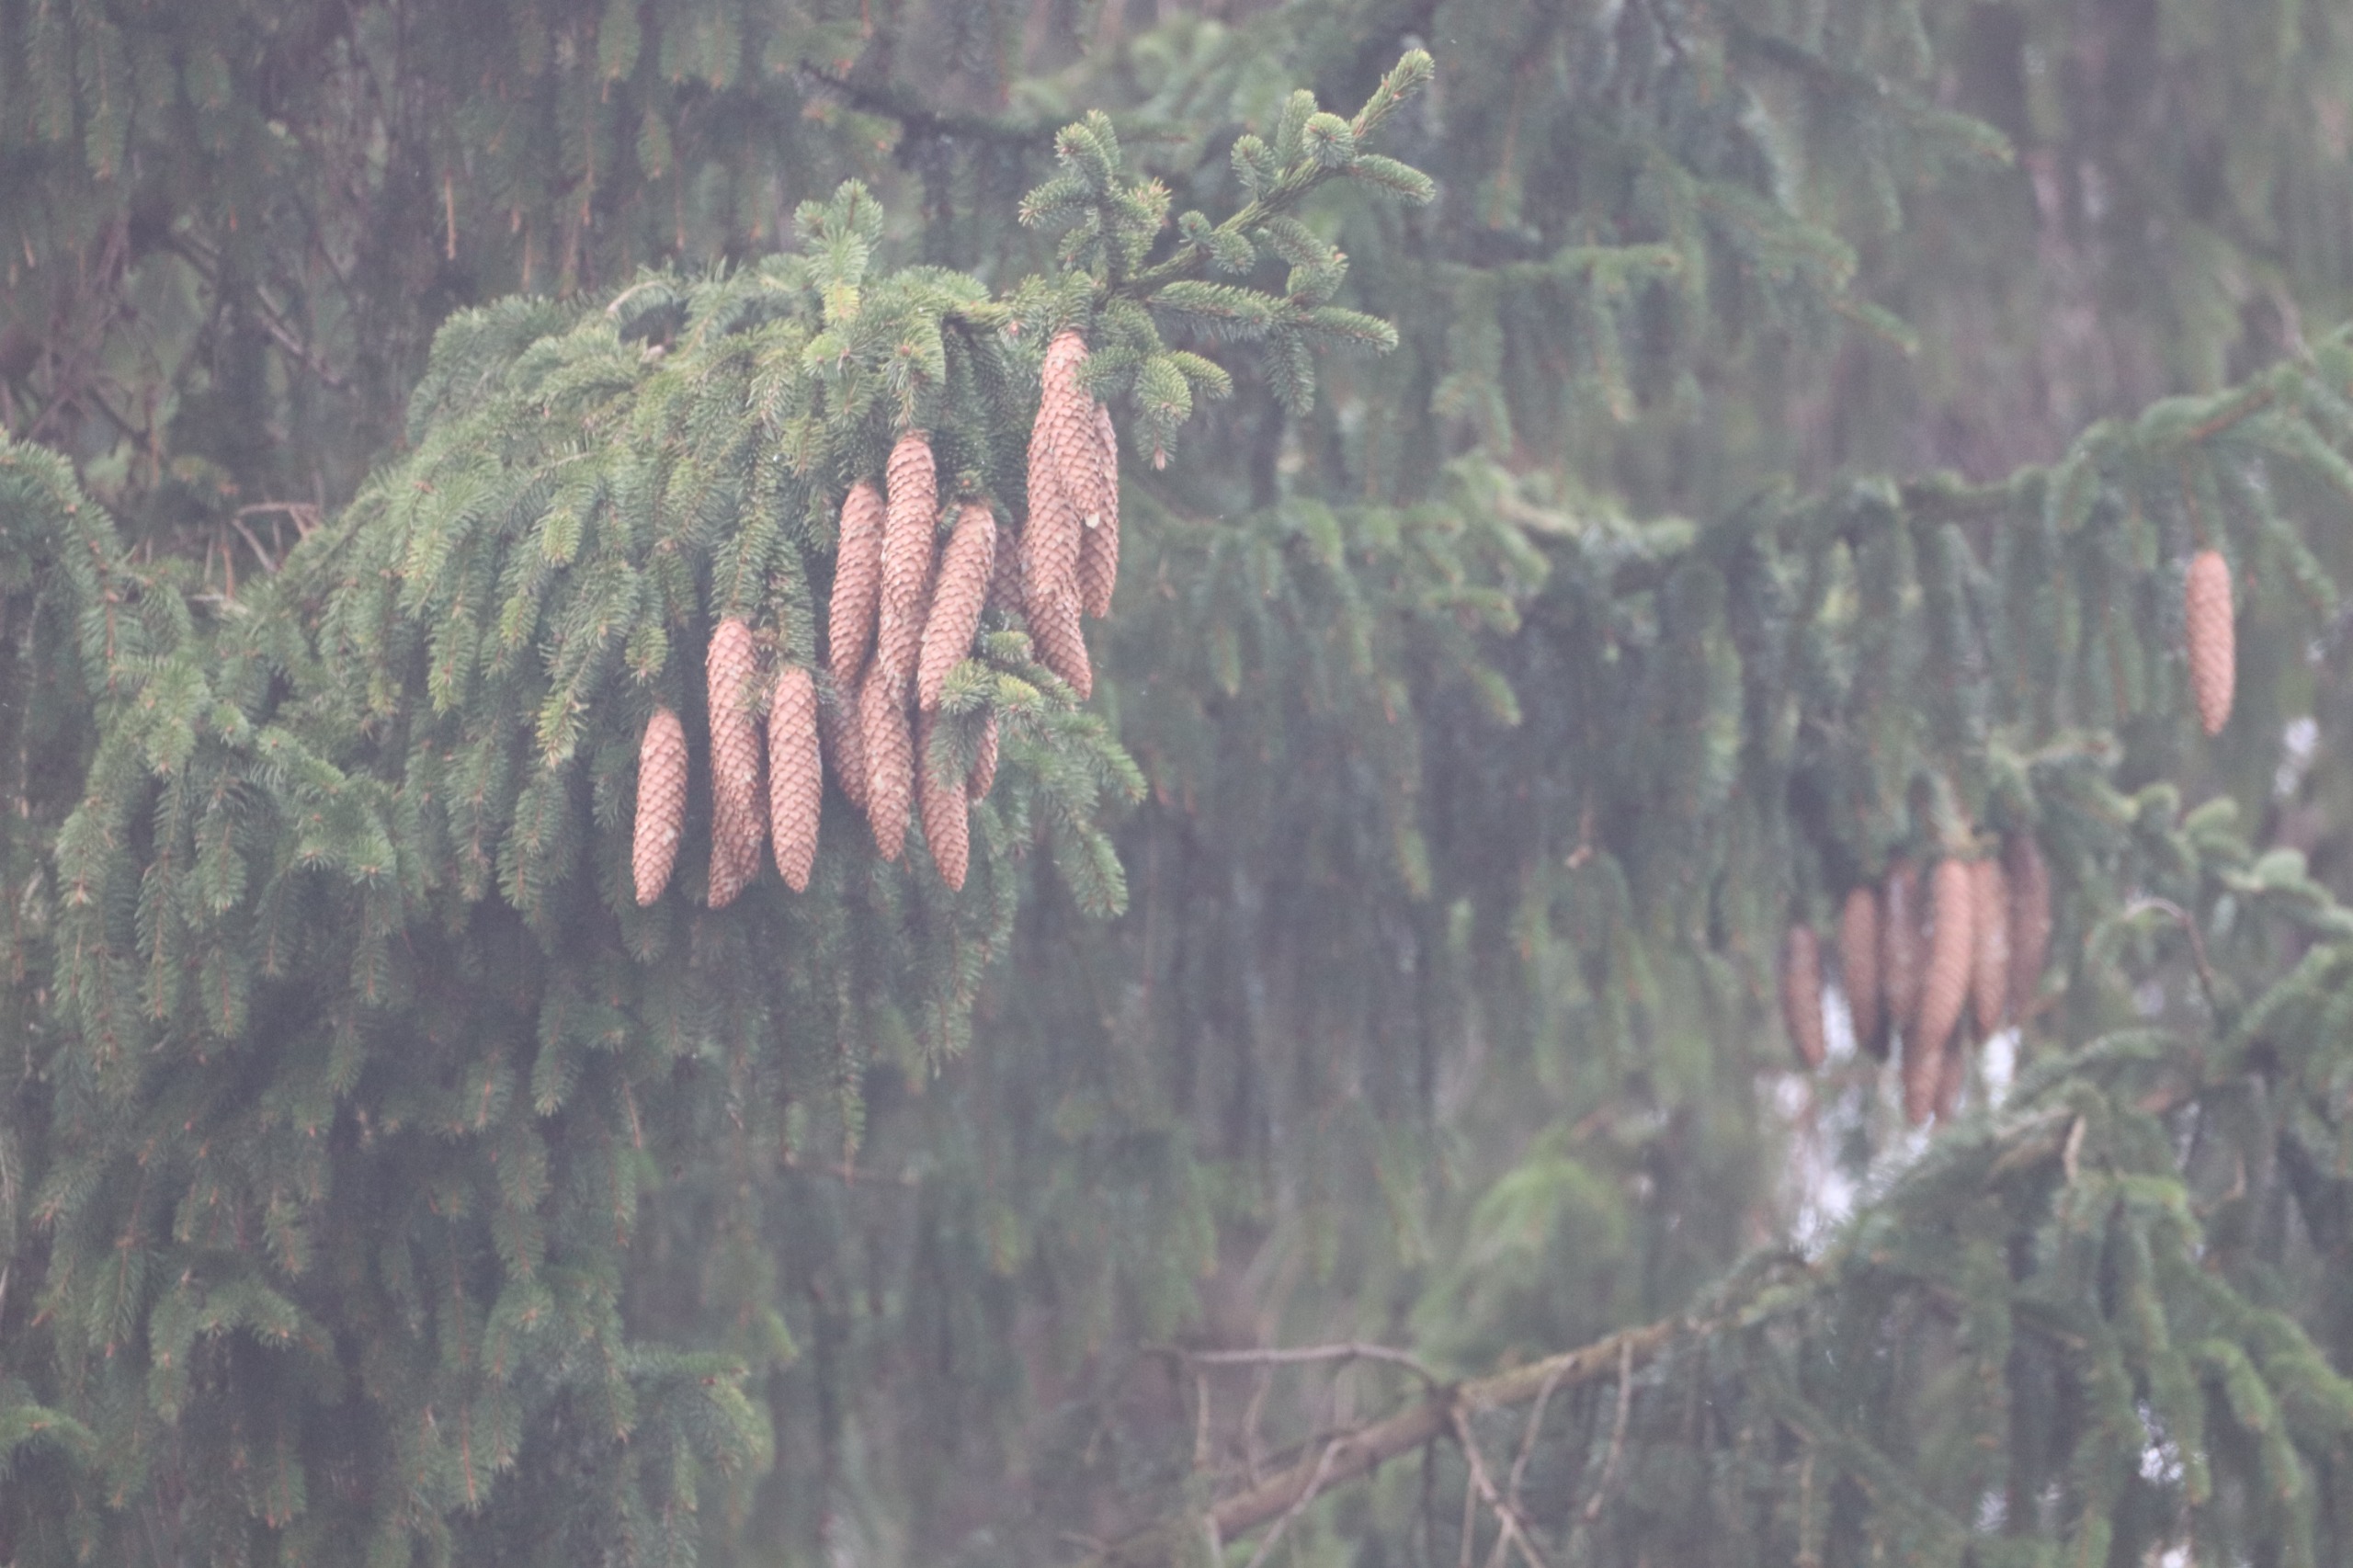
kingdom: Plantae
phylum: Tracheophyta
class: Pinopsida
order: Pinales
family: Pinaceae
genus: Picea
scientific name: Picea abies
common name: Rød-gran
